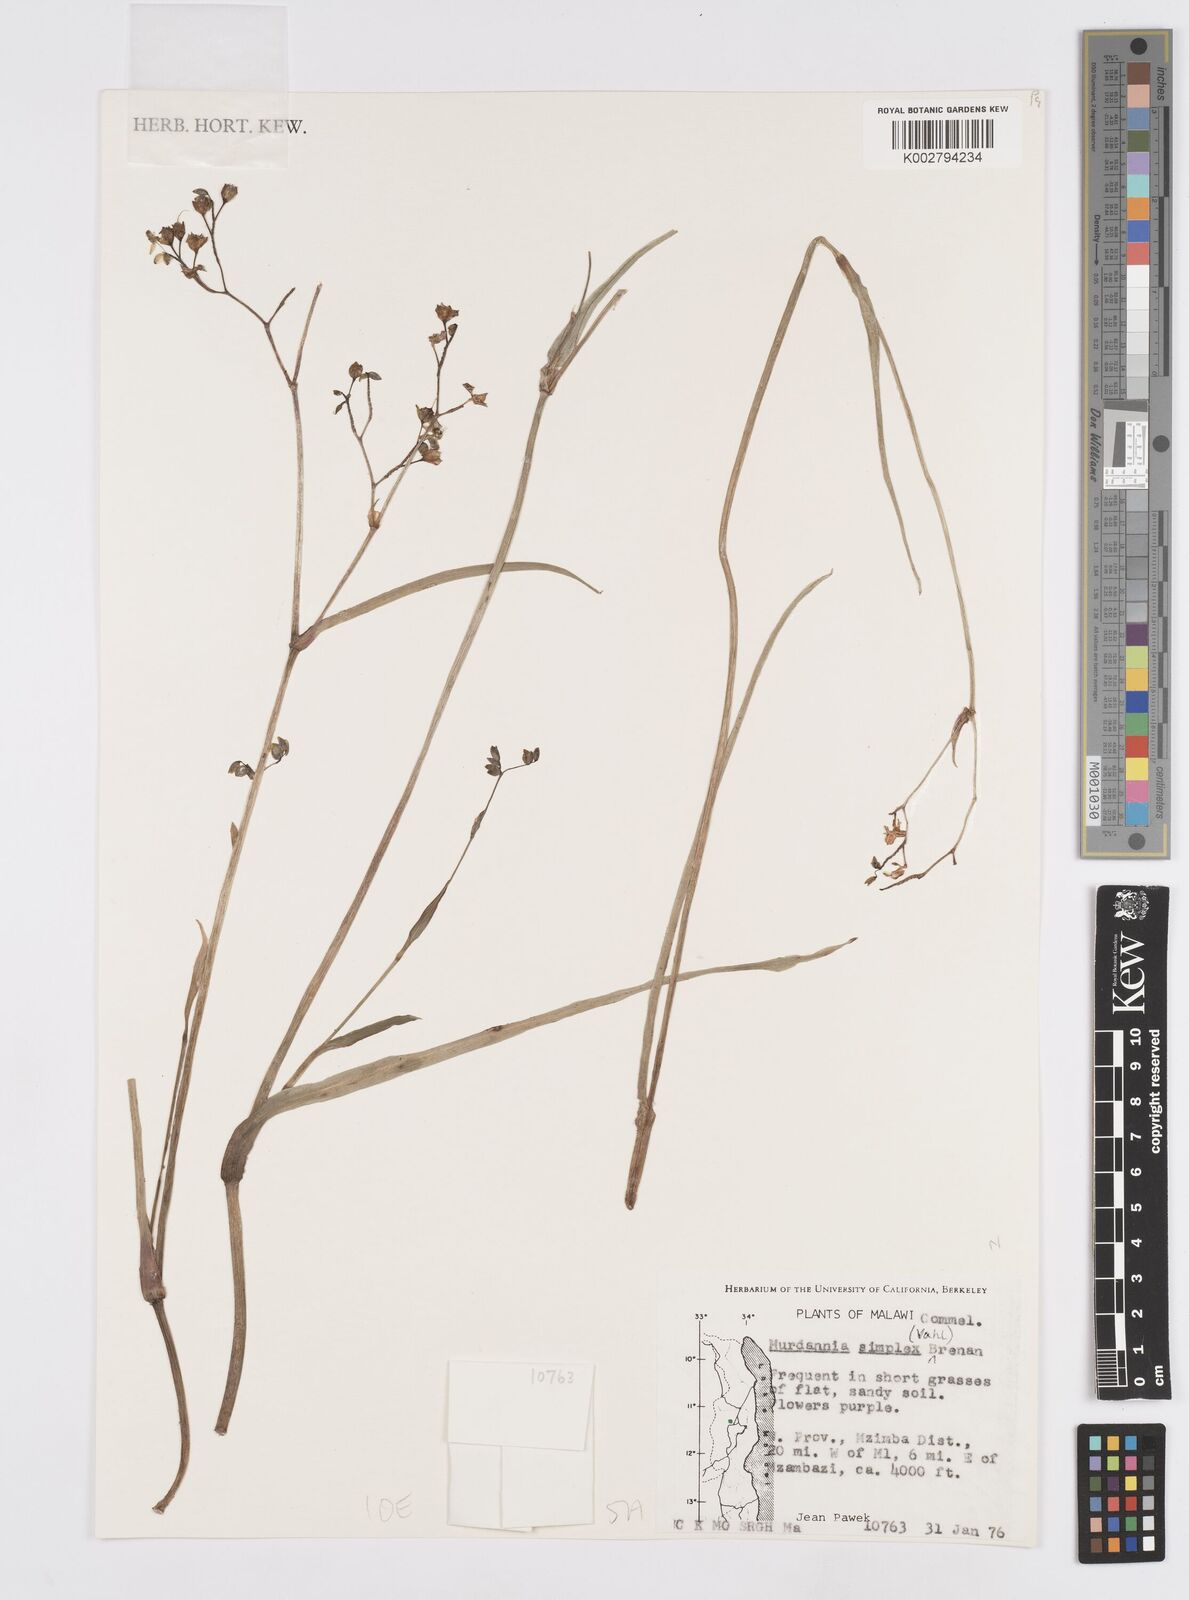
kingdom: Plantae
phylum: Tracheophyta
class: Liliopsida
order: Commelinales
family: Commelinaceae
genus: Murdannia
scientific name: Murdannia simplex
